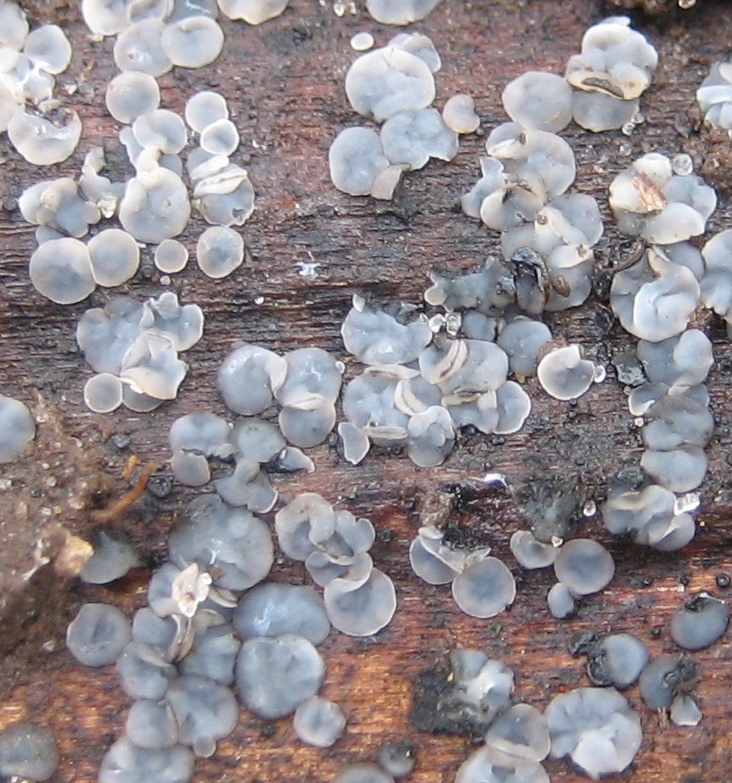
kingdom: Fungi
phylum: Ascomycota
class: Leotiomycetes
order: Helotiales
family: Mollisiaceae
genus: Mollisia
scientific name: Mollisia
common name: gråskive
